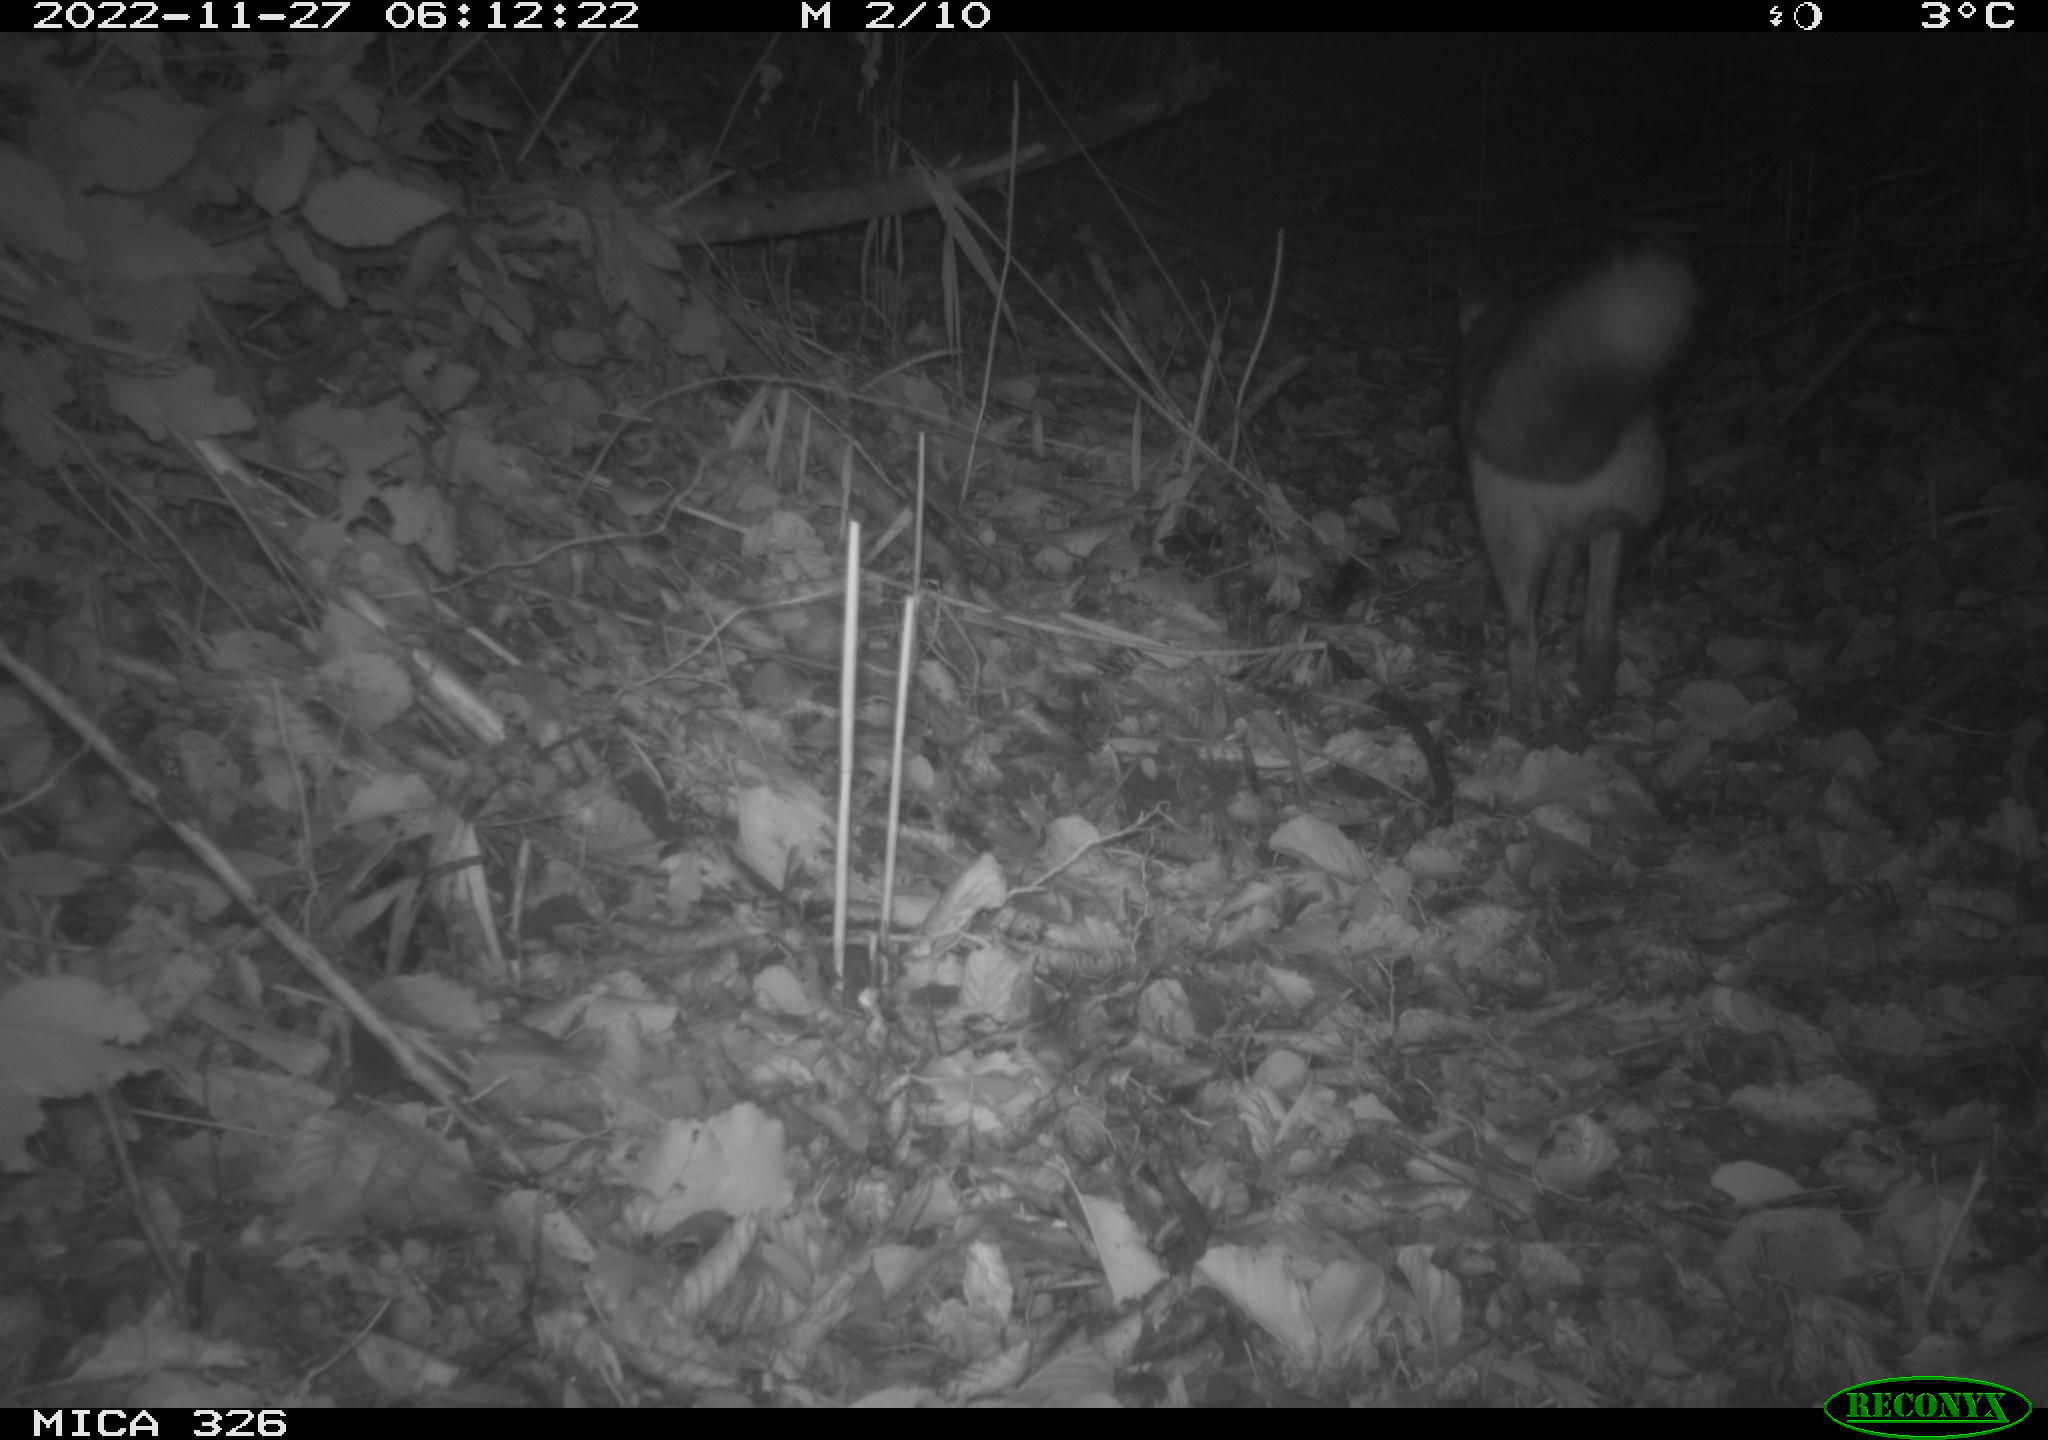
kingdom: Animalia
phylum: Chordata
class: Mammalia
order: Carnivora
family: Canidae
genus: Vulpes
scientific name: Vulpes vulpes
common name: Red fox
